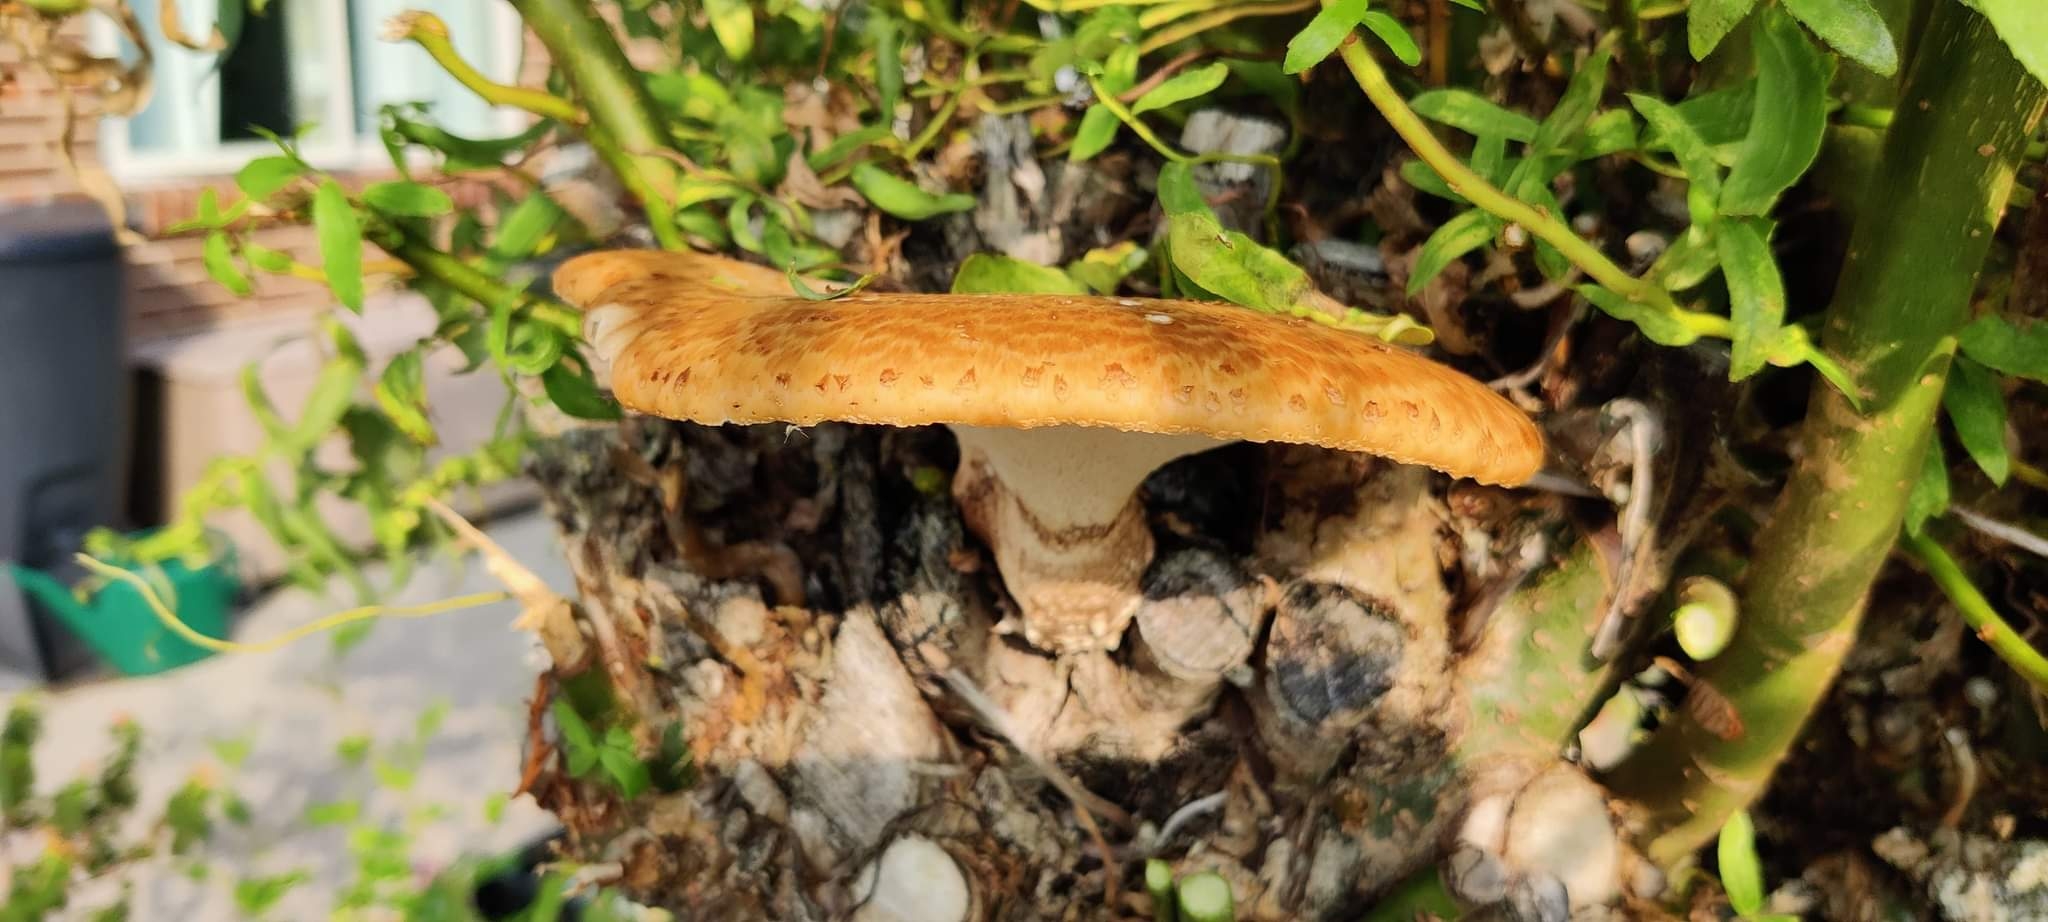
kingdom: Fungi
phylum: Basidiomycota
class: Agaricomycetes
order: Polyporales
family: Polyporaceae
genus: Cerioporus
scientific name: Cerioporus squamosus
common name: skællet stilkporesvamp
